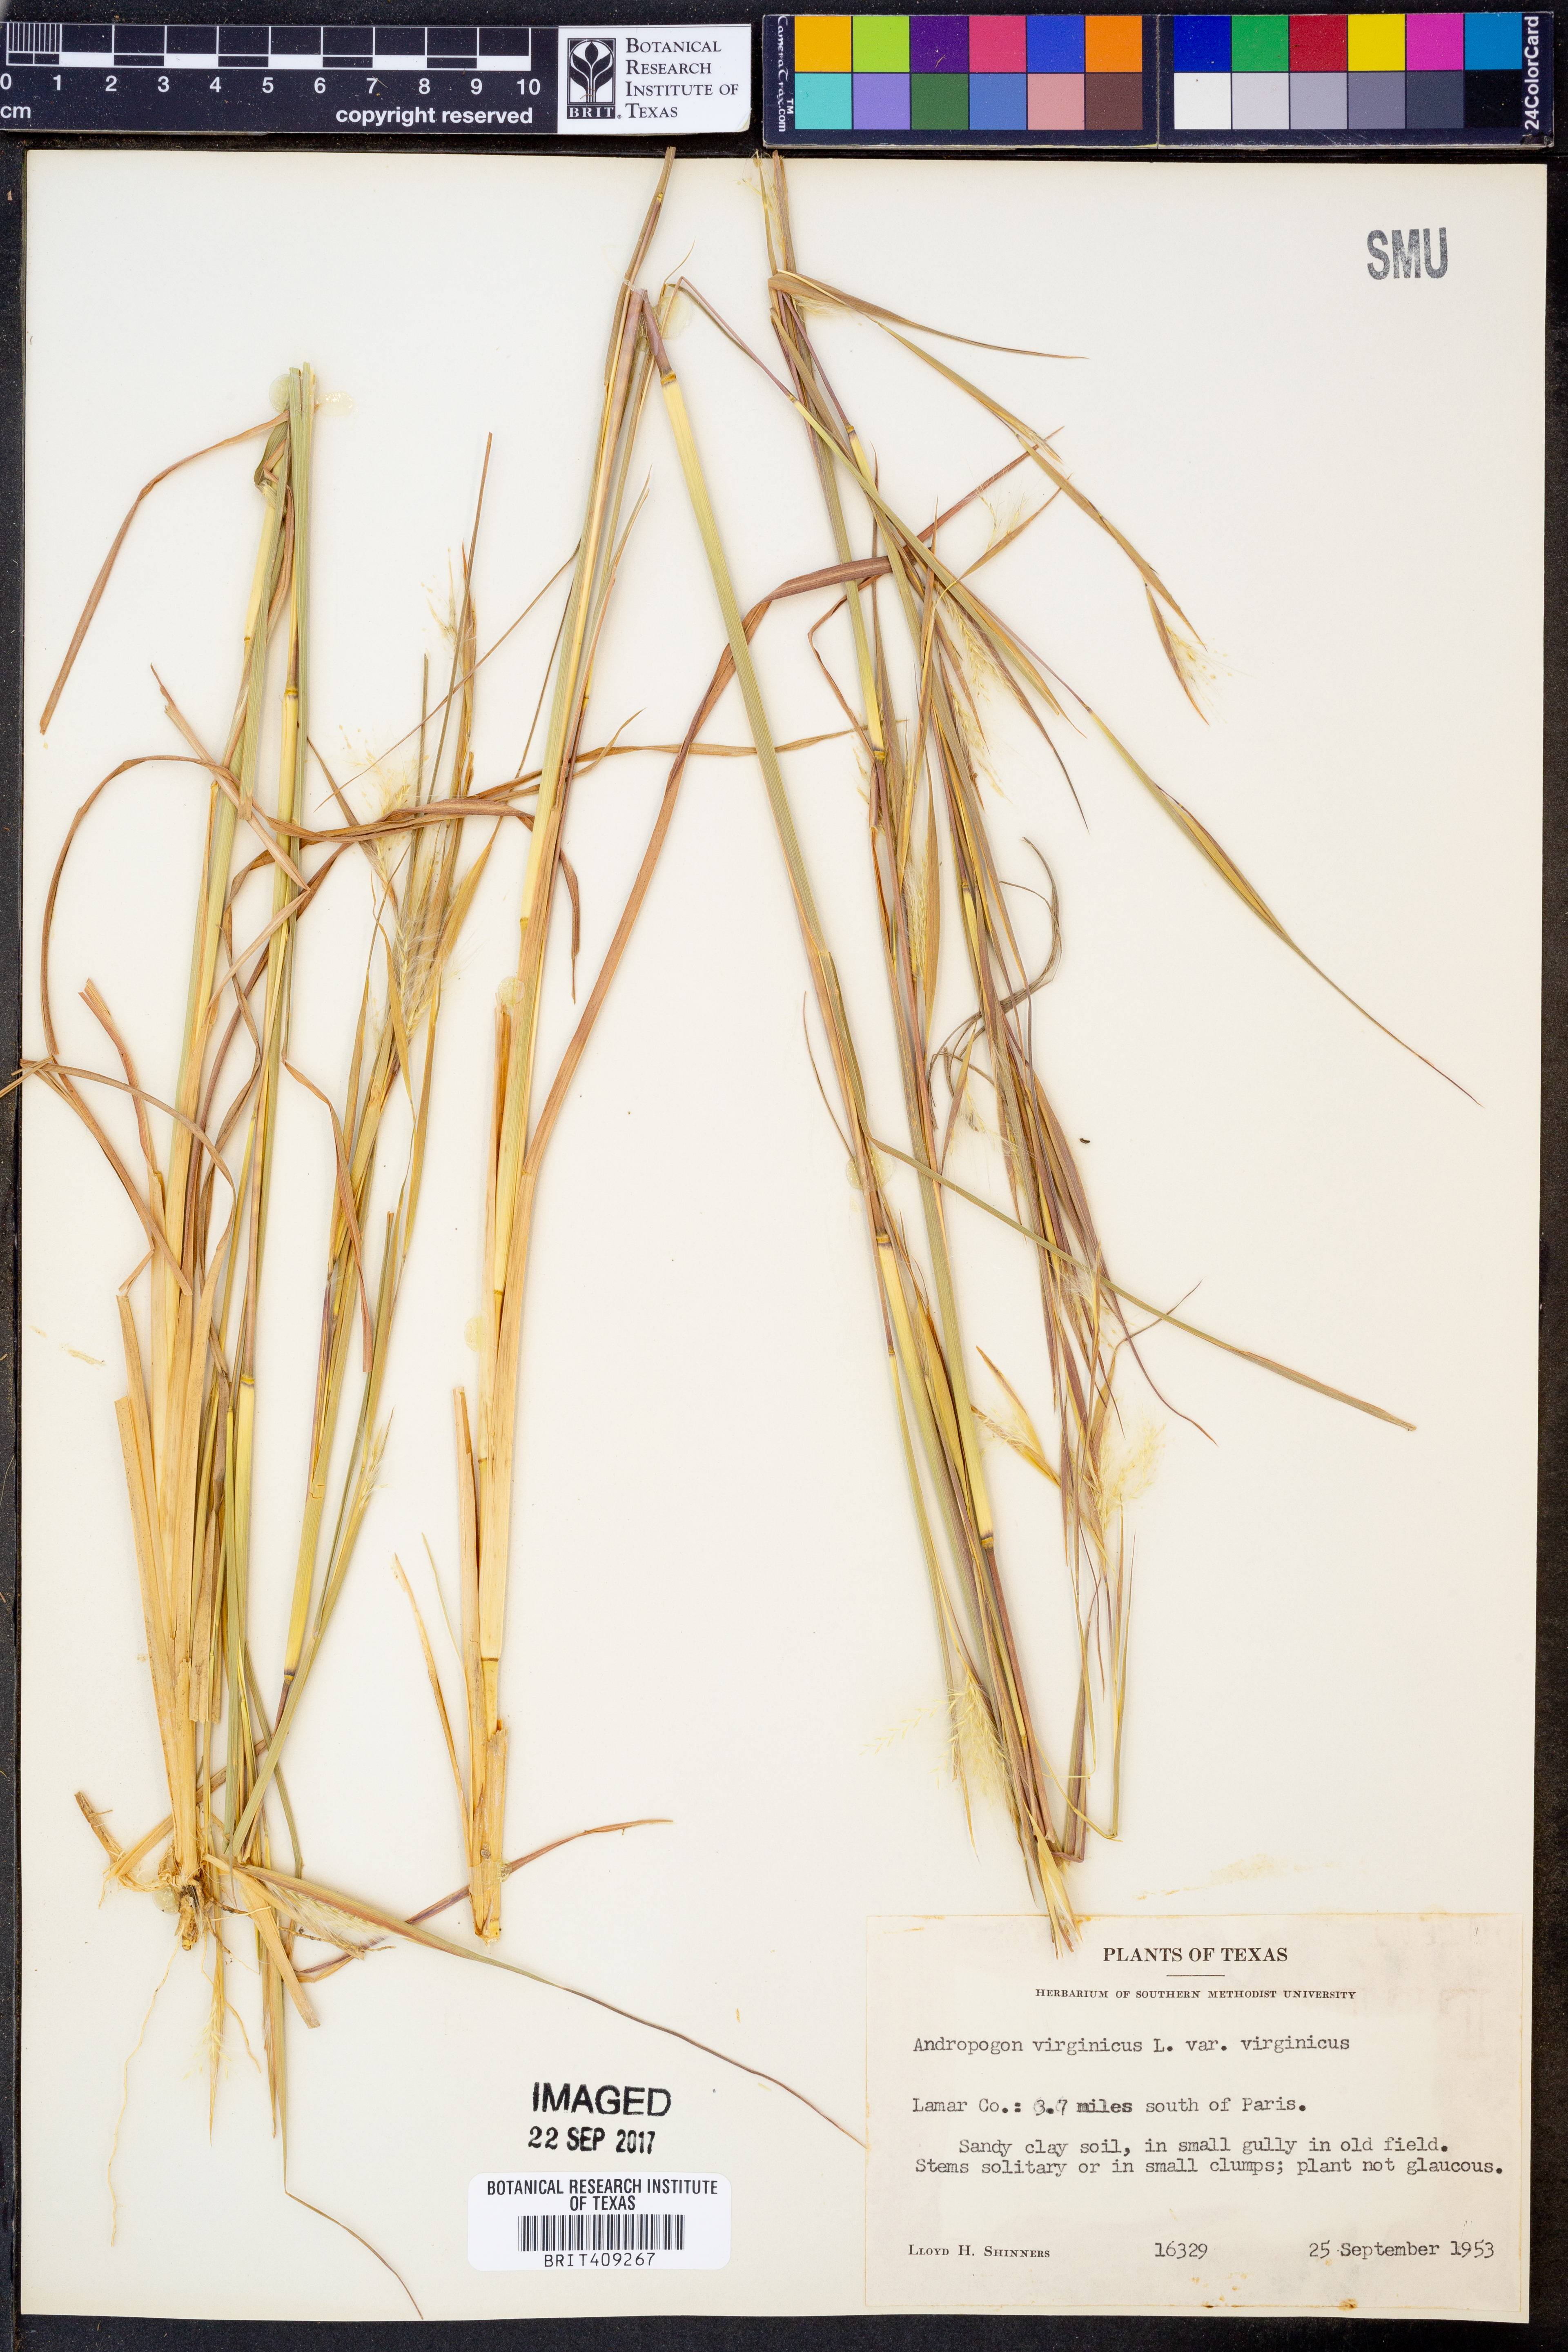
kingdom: Plantae
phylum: Tracheophyta
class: Liliopsida
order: Poales
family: Poaceae
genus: Andropogon
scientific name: Andropogon virginicus
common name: Broomsedge bluestem
